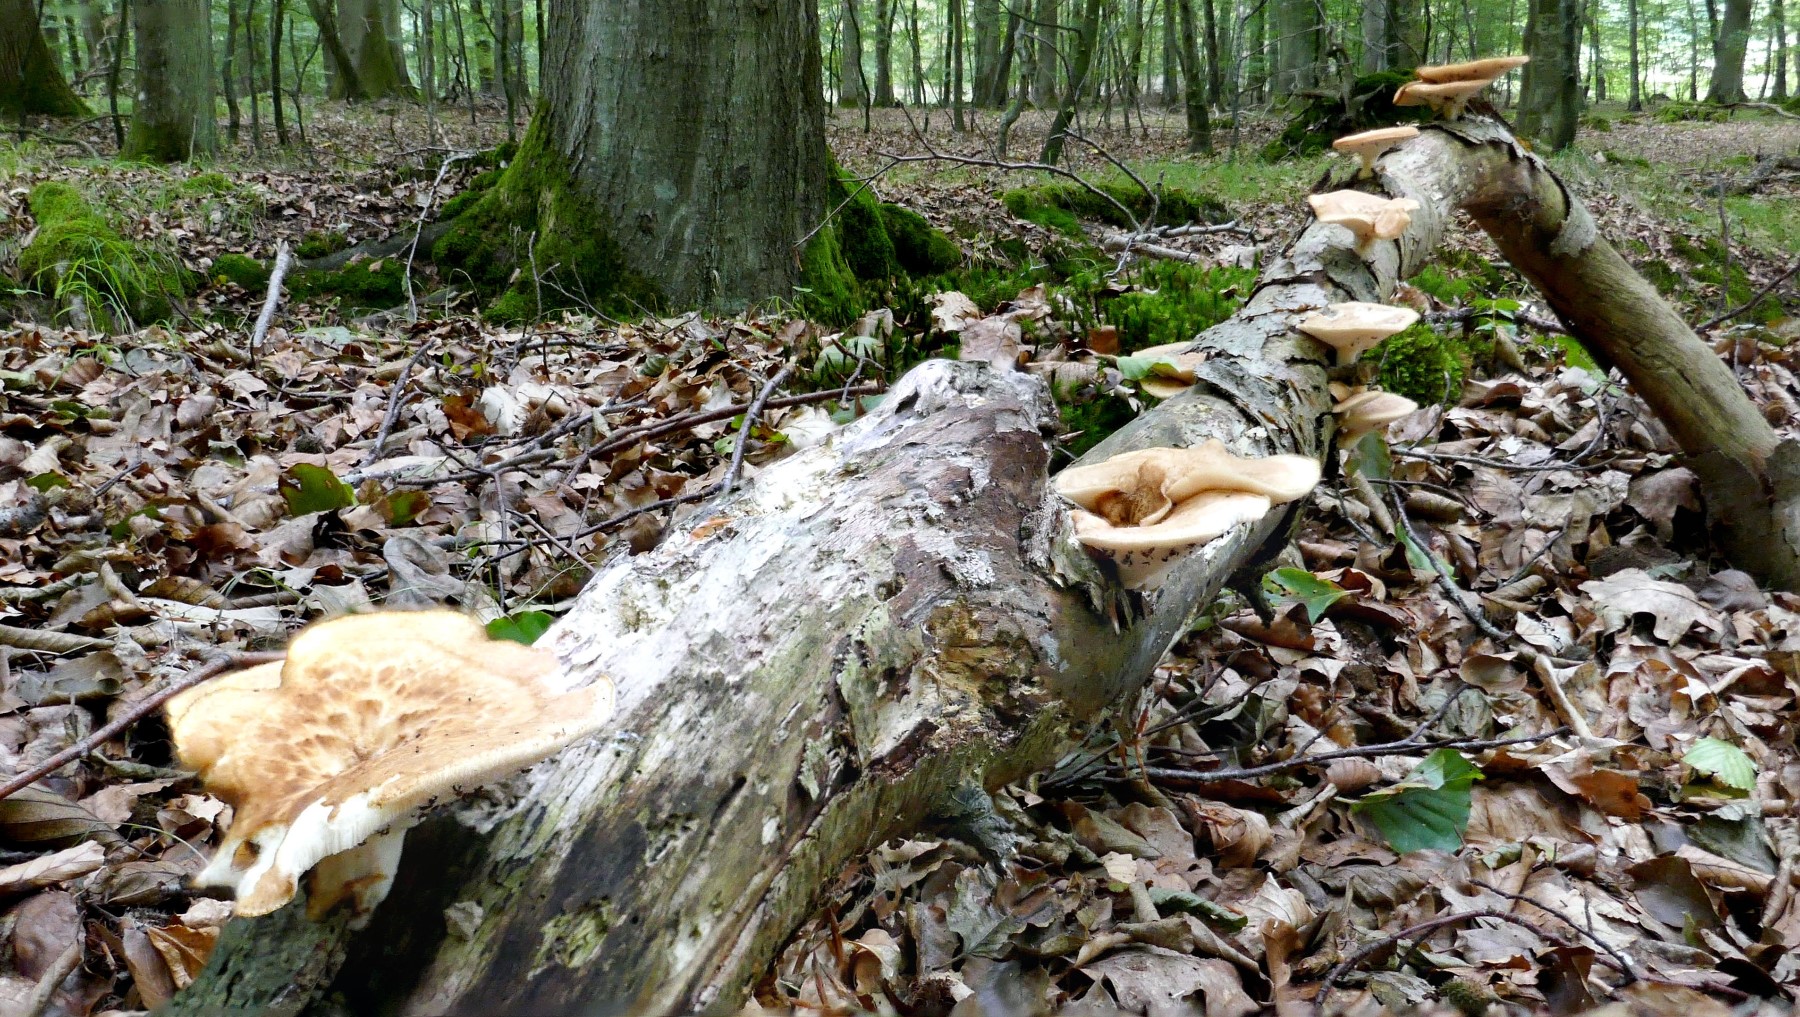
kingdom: Fungi
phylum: Basidiomycota
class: Agaricomycetes
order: Polyporales
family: Polyporaceae
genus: Polyporus
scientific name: Polyporus tuberaster
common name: knoldet stilkporesvamp
